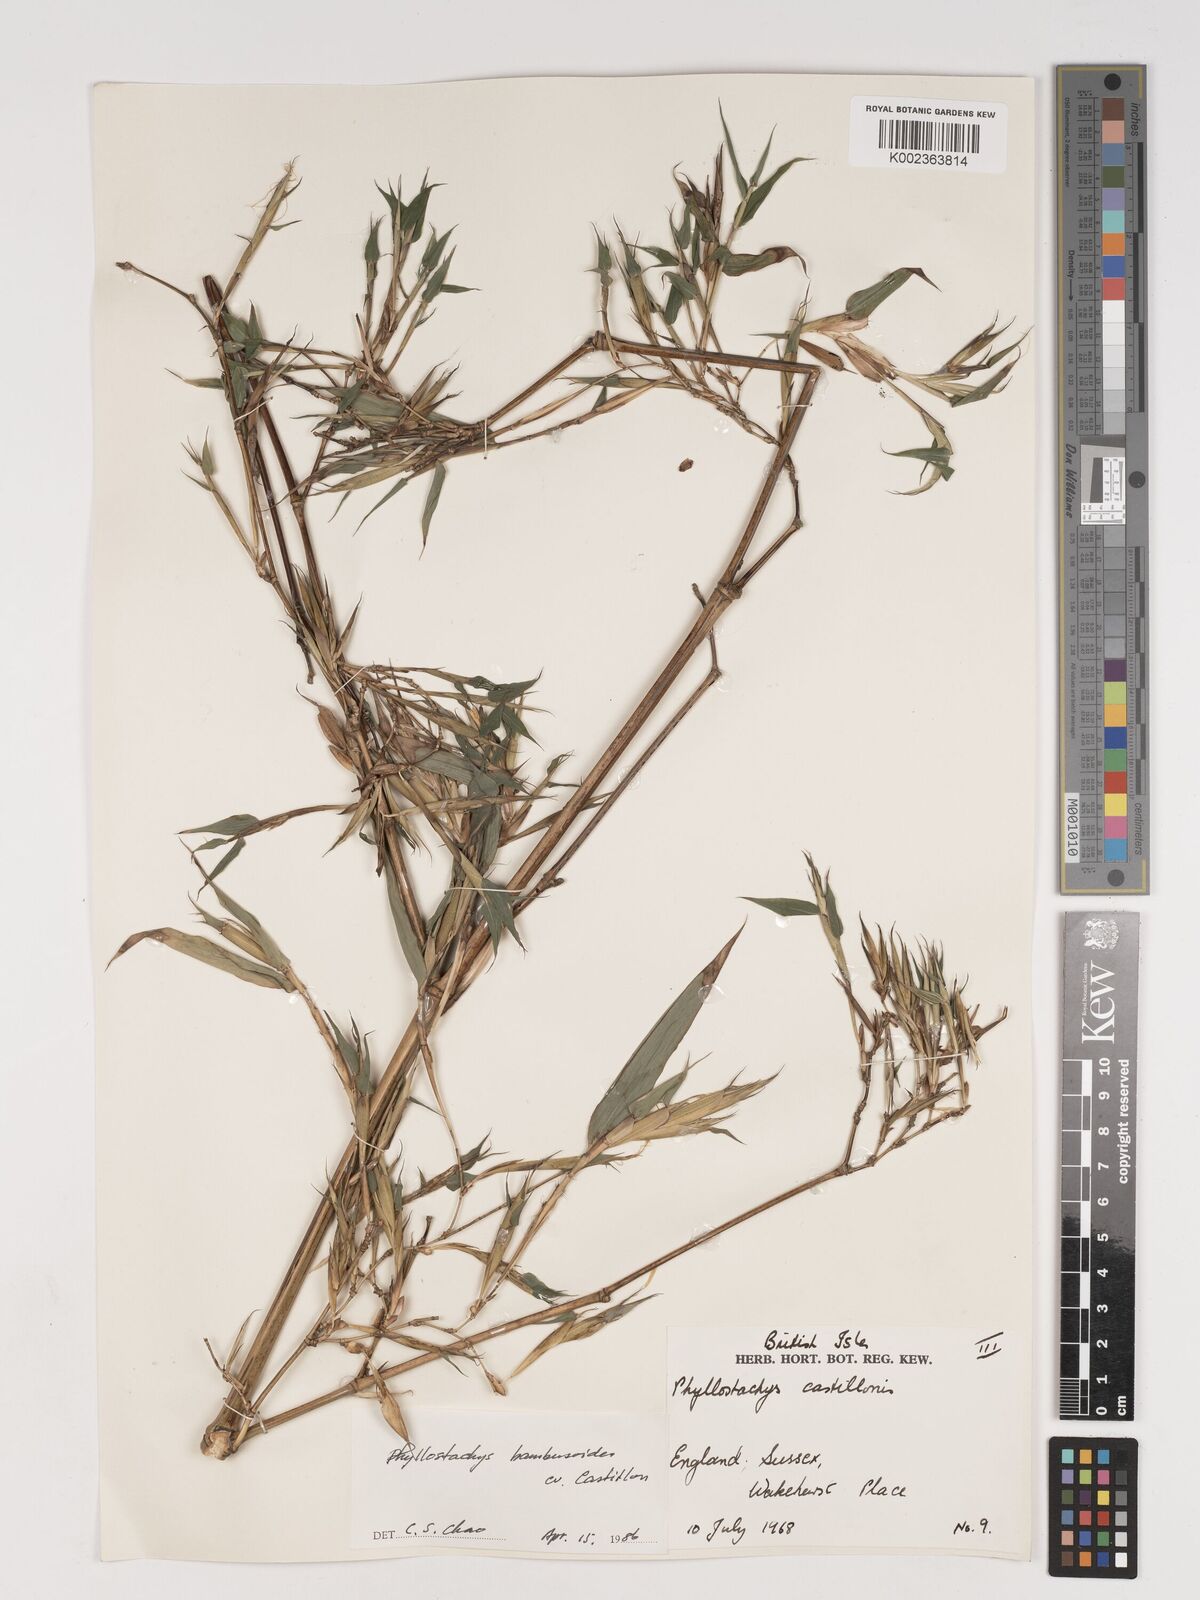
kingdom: Plantae
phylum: Tracheophyta
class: Liliopsida
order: Poales
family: Poaceae
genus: Phyllostachys
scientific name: Phyllostachys reticulata
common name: Bamboo
